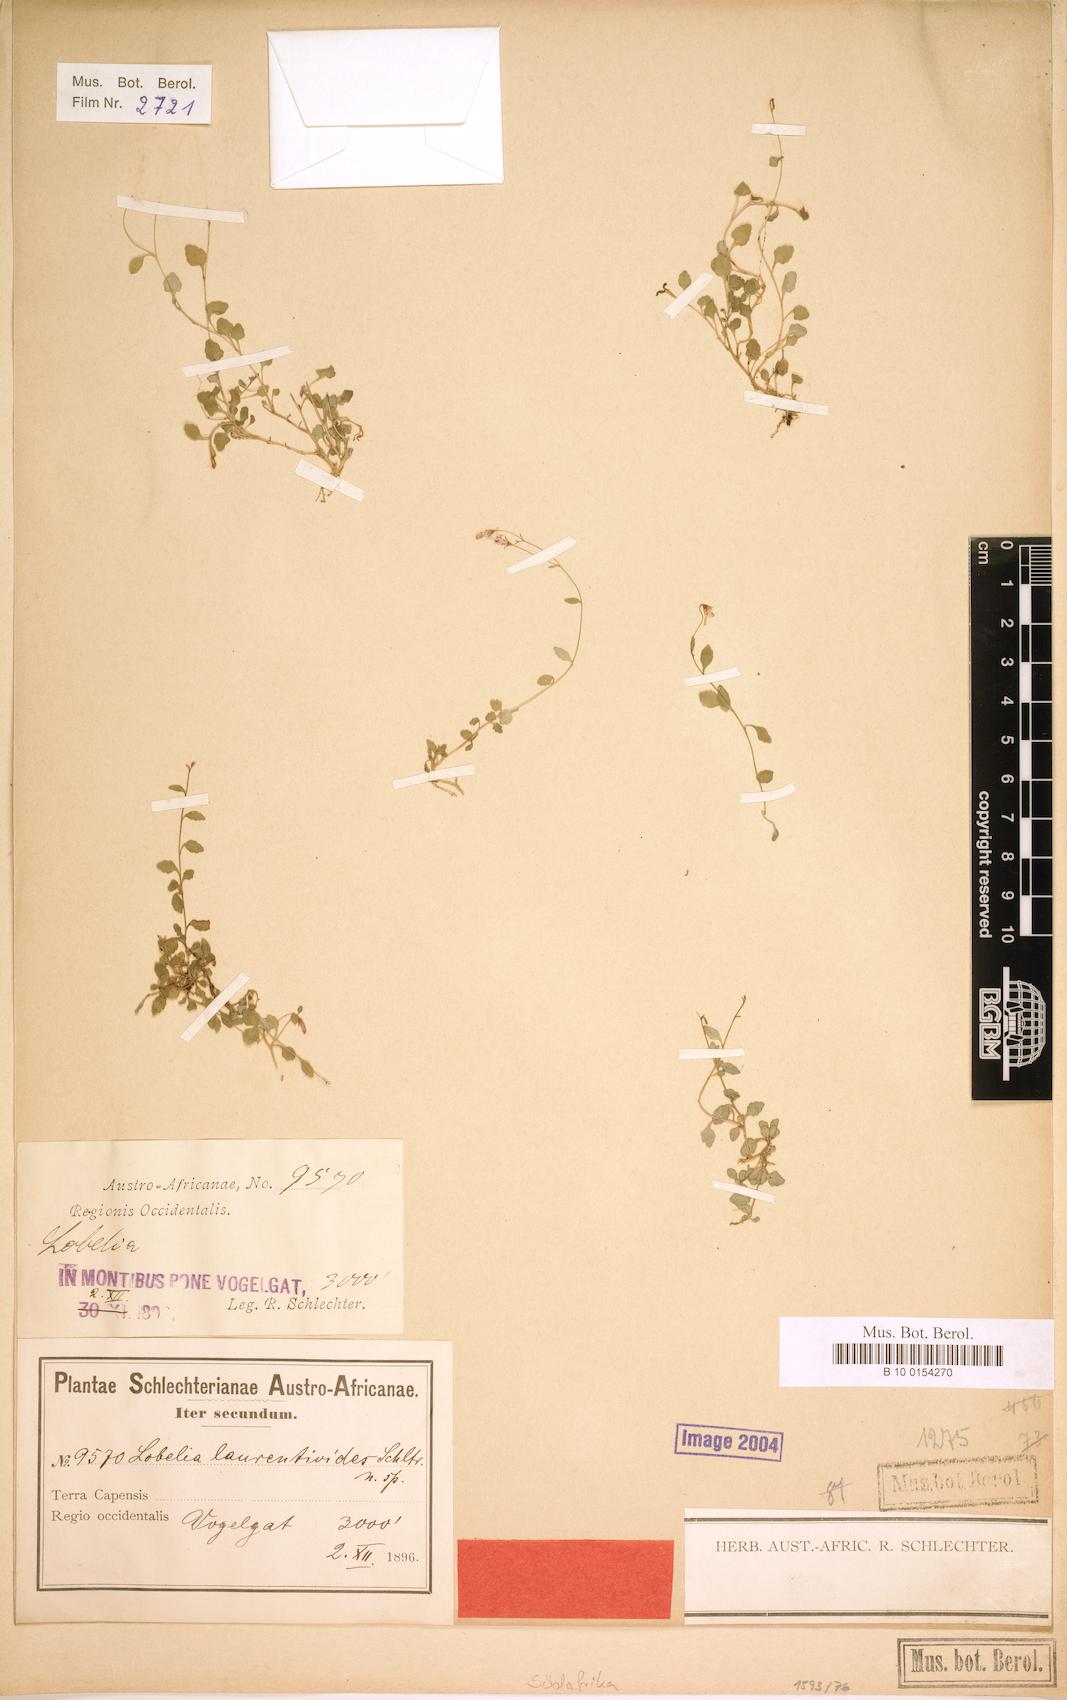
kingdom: Plantae
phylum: Tracheophyta
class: Magnoliopsida
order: Asterales
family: Campanulaceae
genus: Lobelia
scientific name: Lobelia laurentioides
